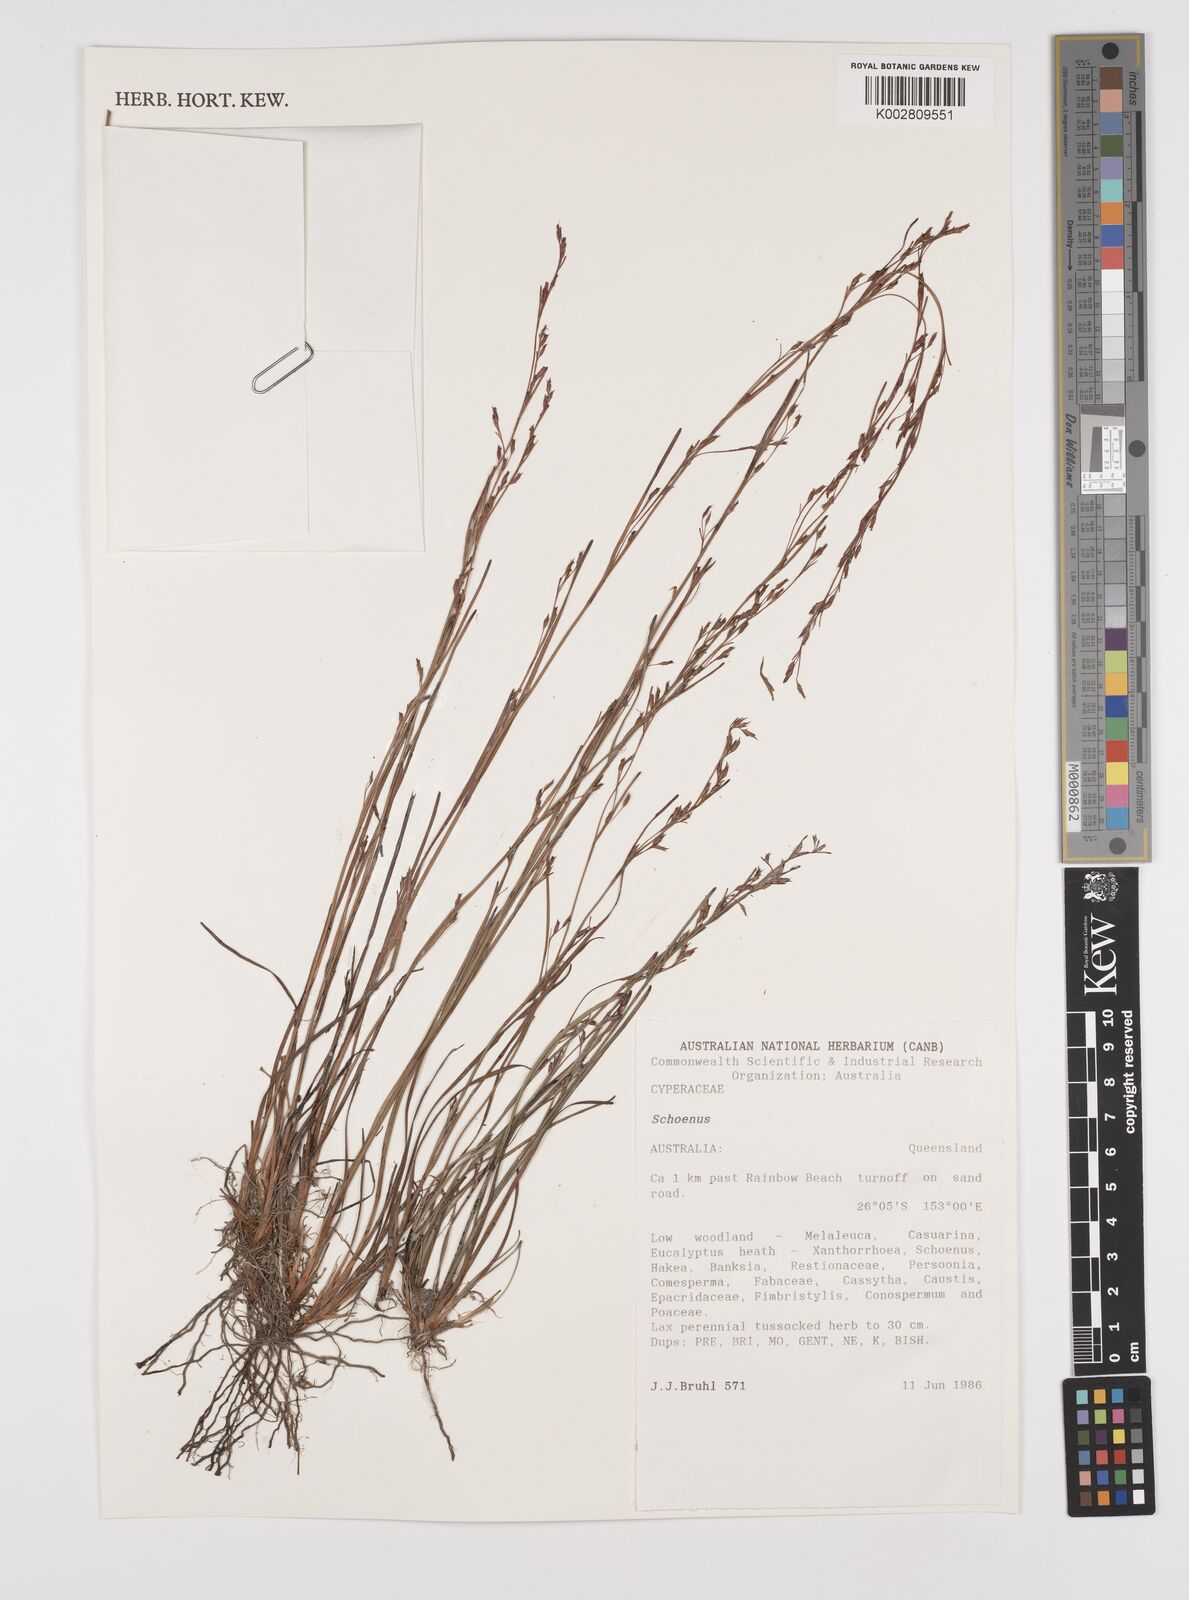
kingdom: Plantae
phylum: Tracheophyta
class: Liliopsida
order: Poales
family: Cyperaceae
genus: Schoenus
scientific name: Schoenus
